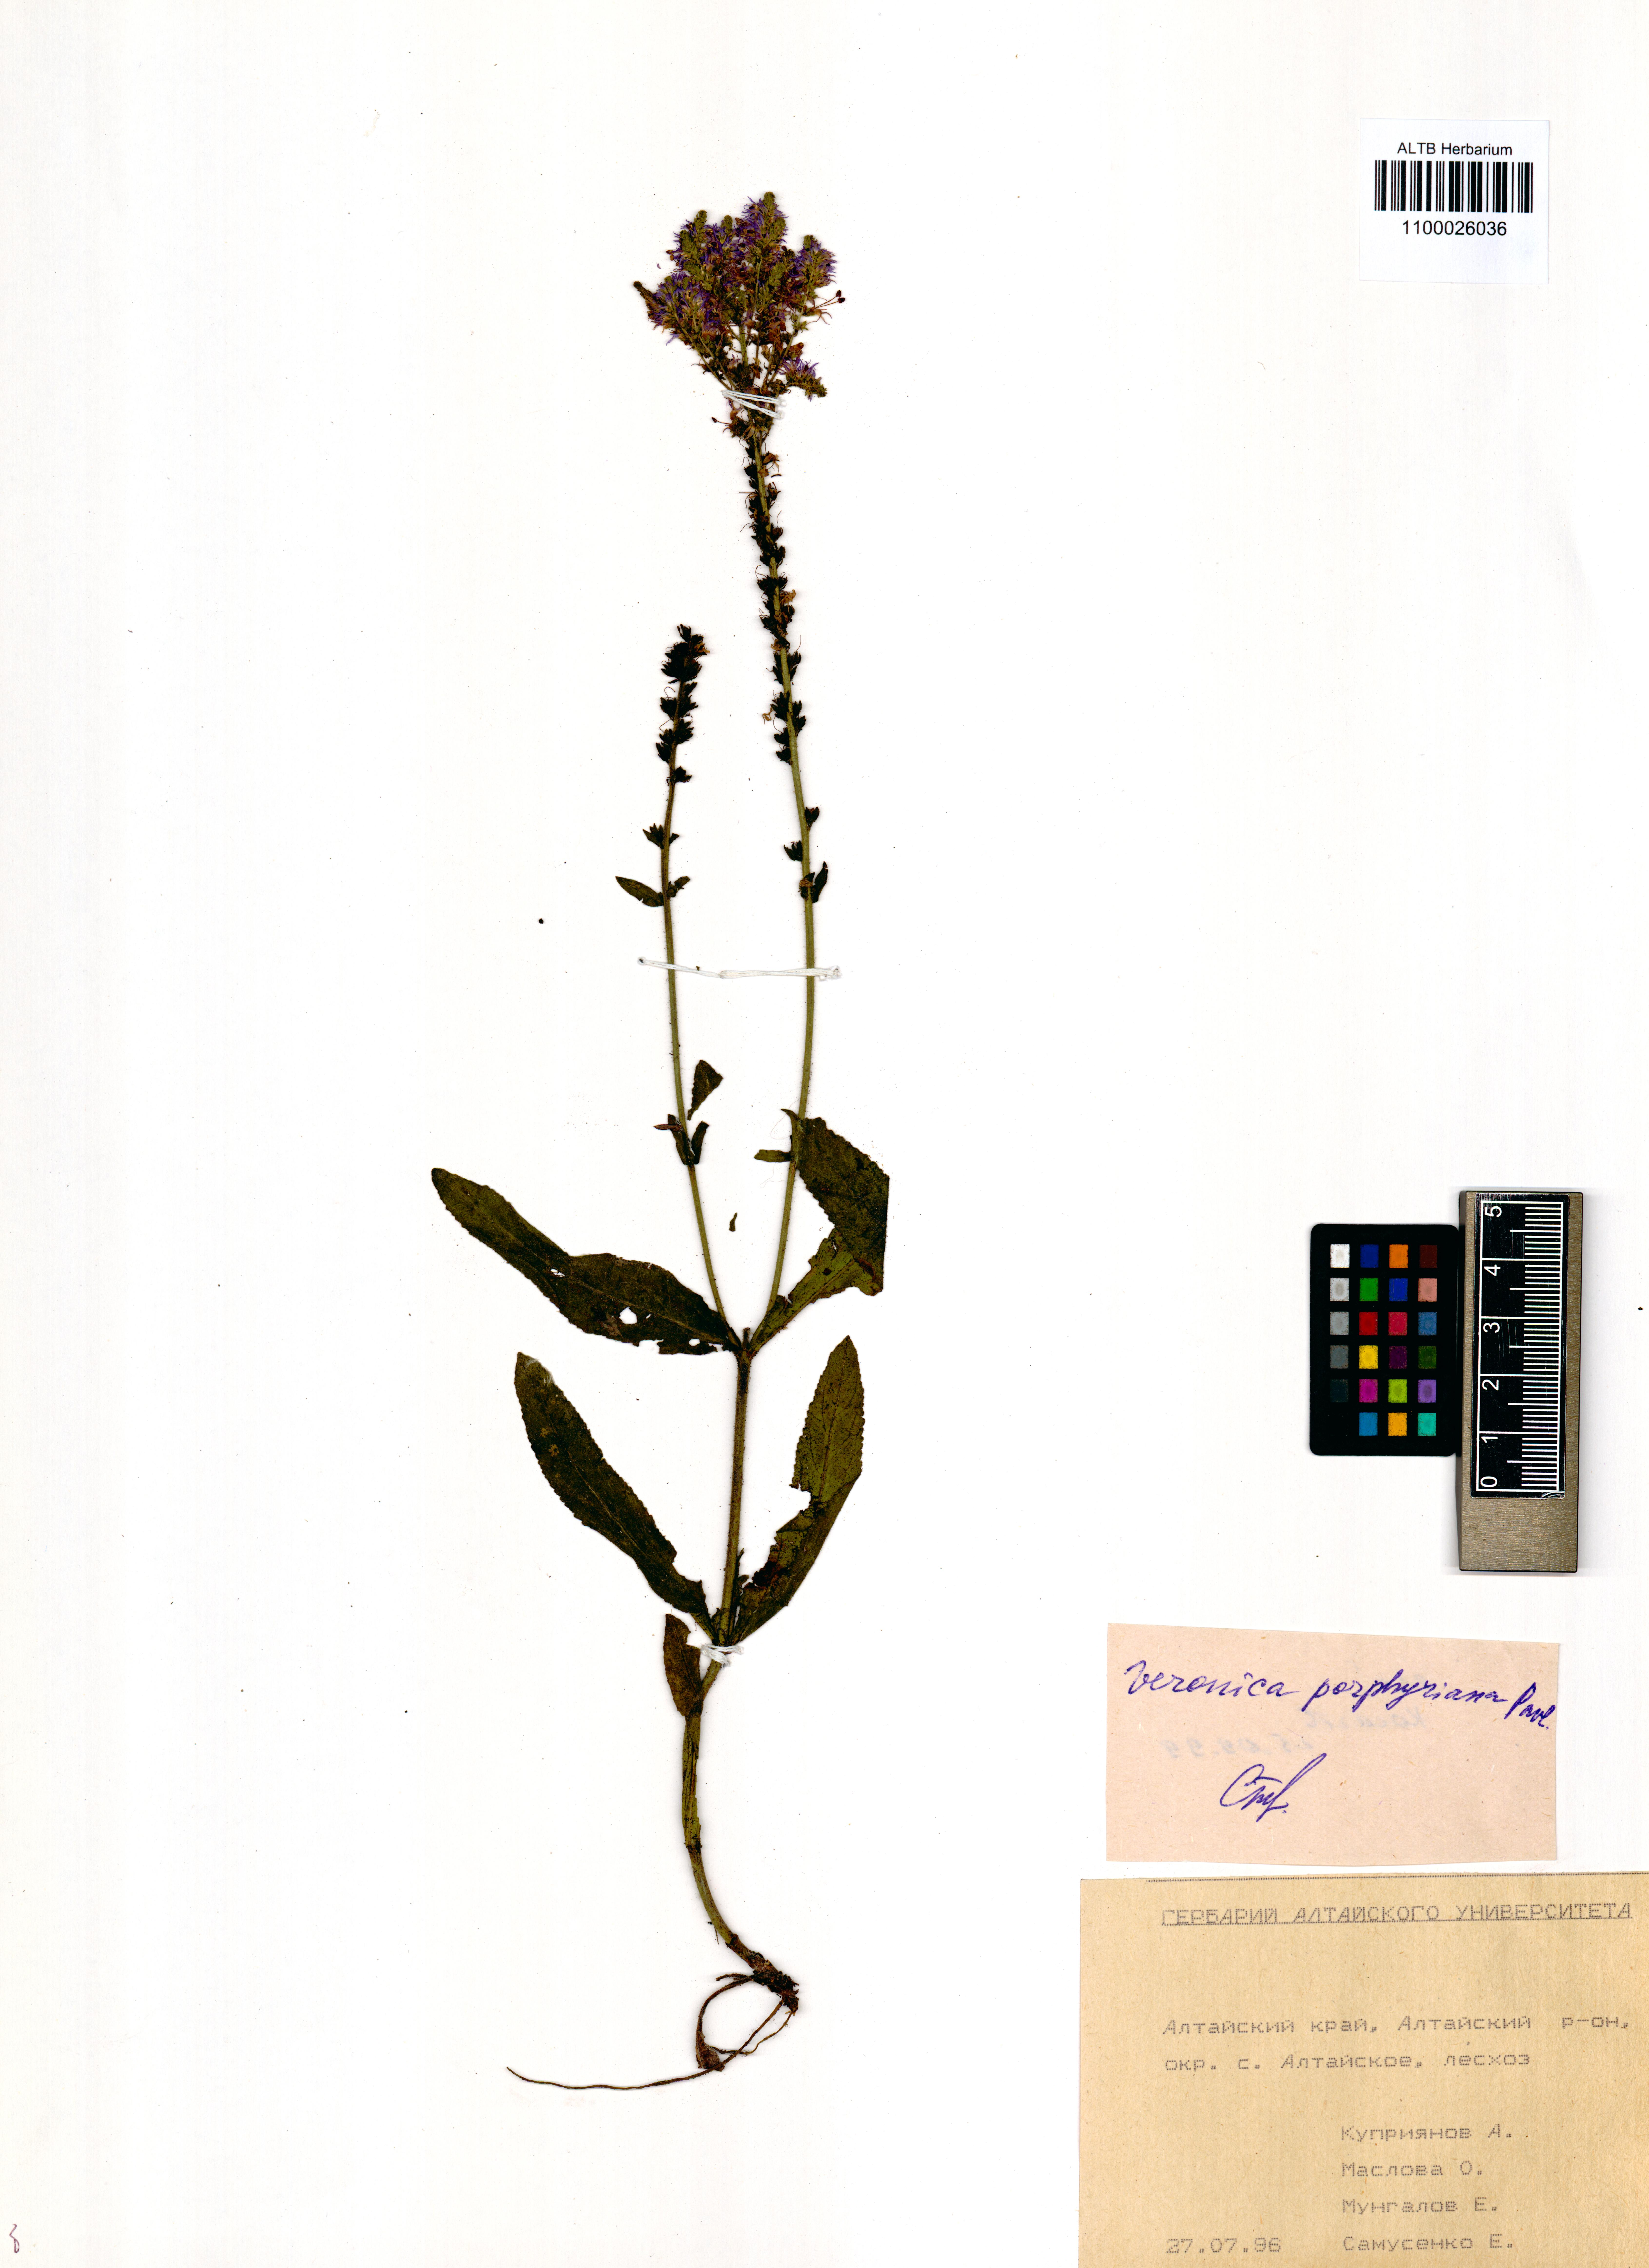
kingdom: Plantae
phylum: Tracheophyta
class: Magnoliopsida
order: Lamiales
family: Plantaginaceae
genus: Veronica
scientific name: Veronica porphyriana
